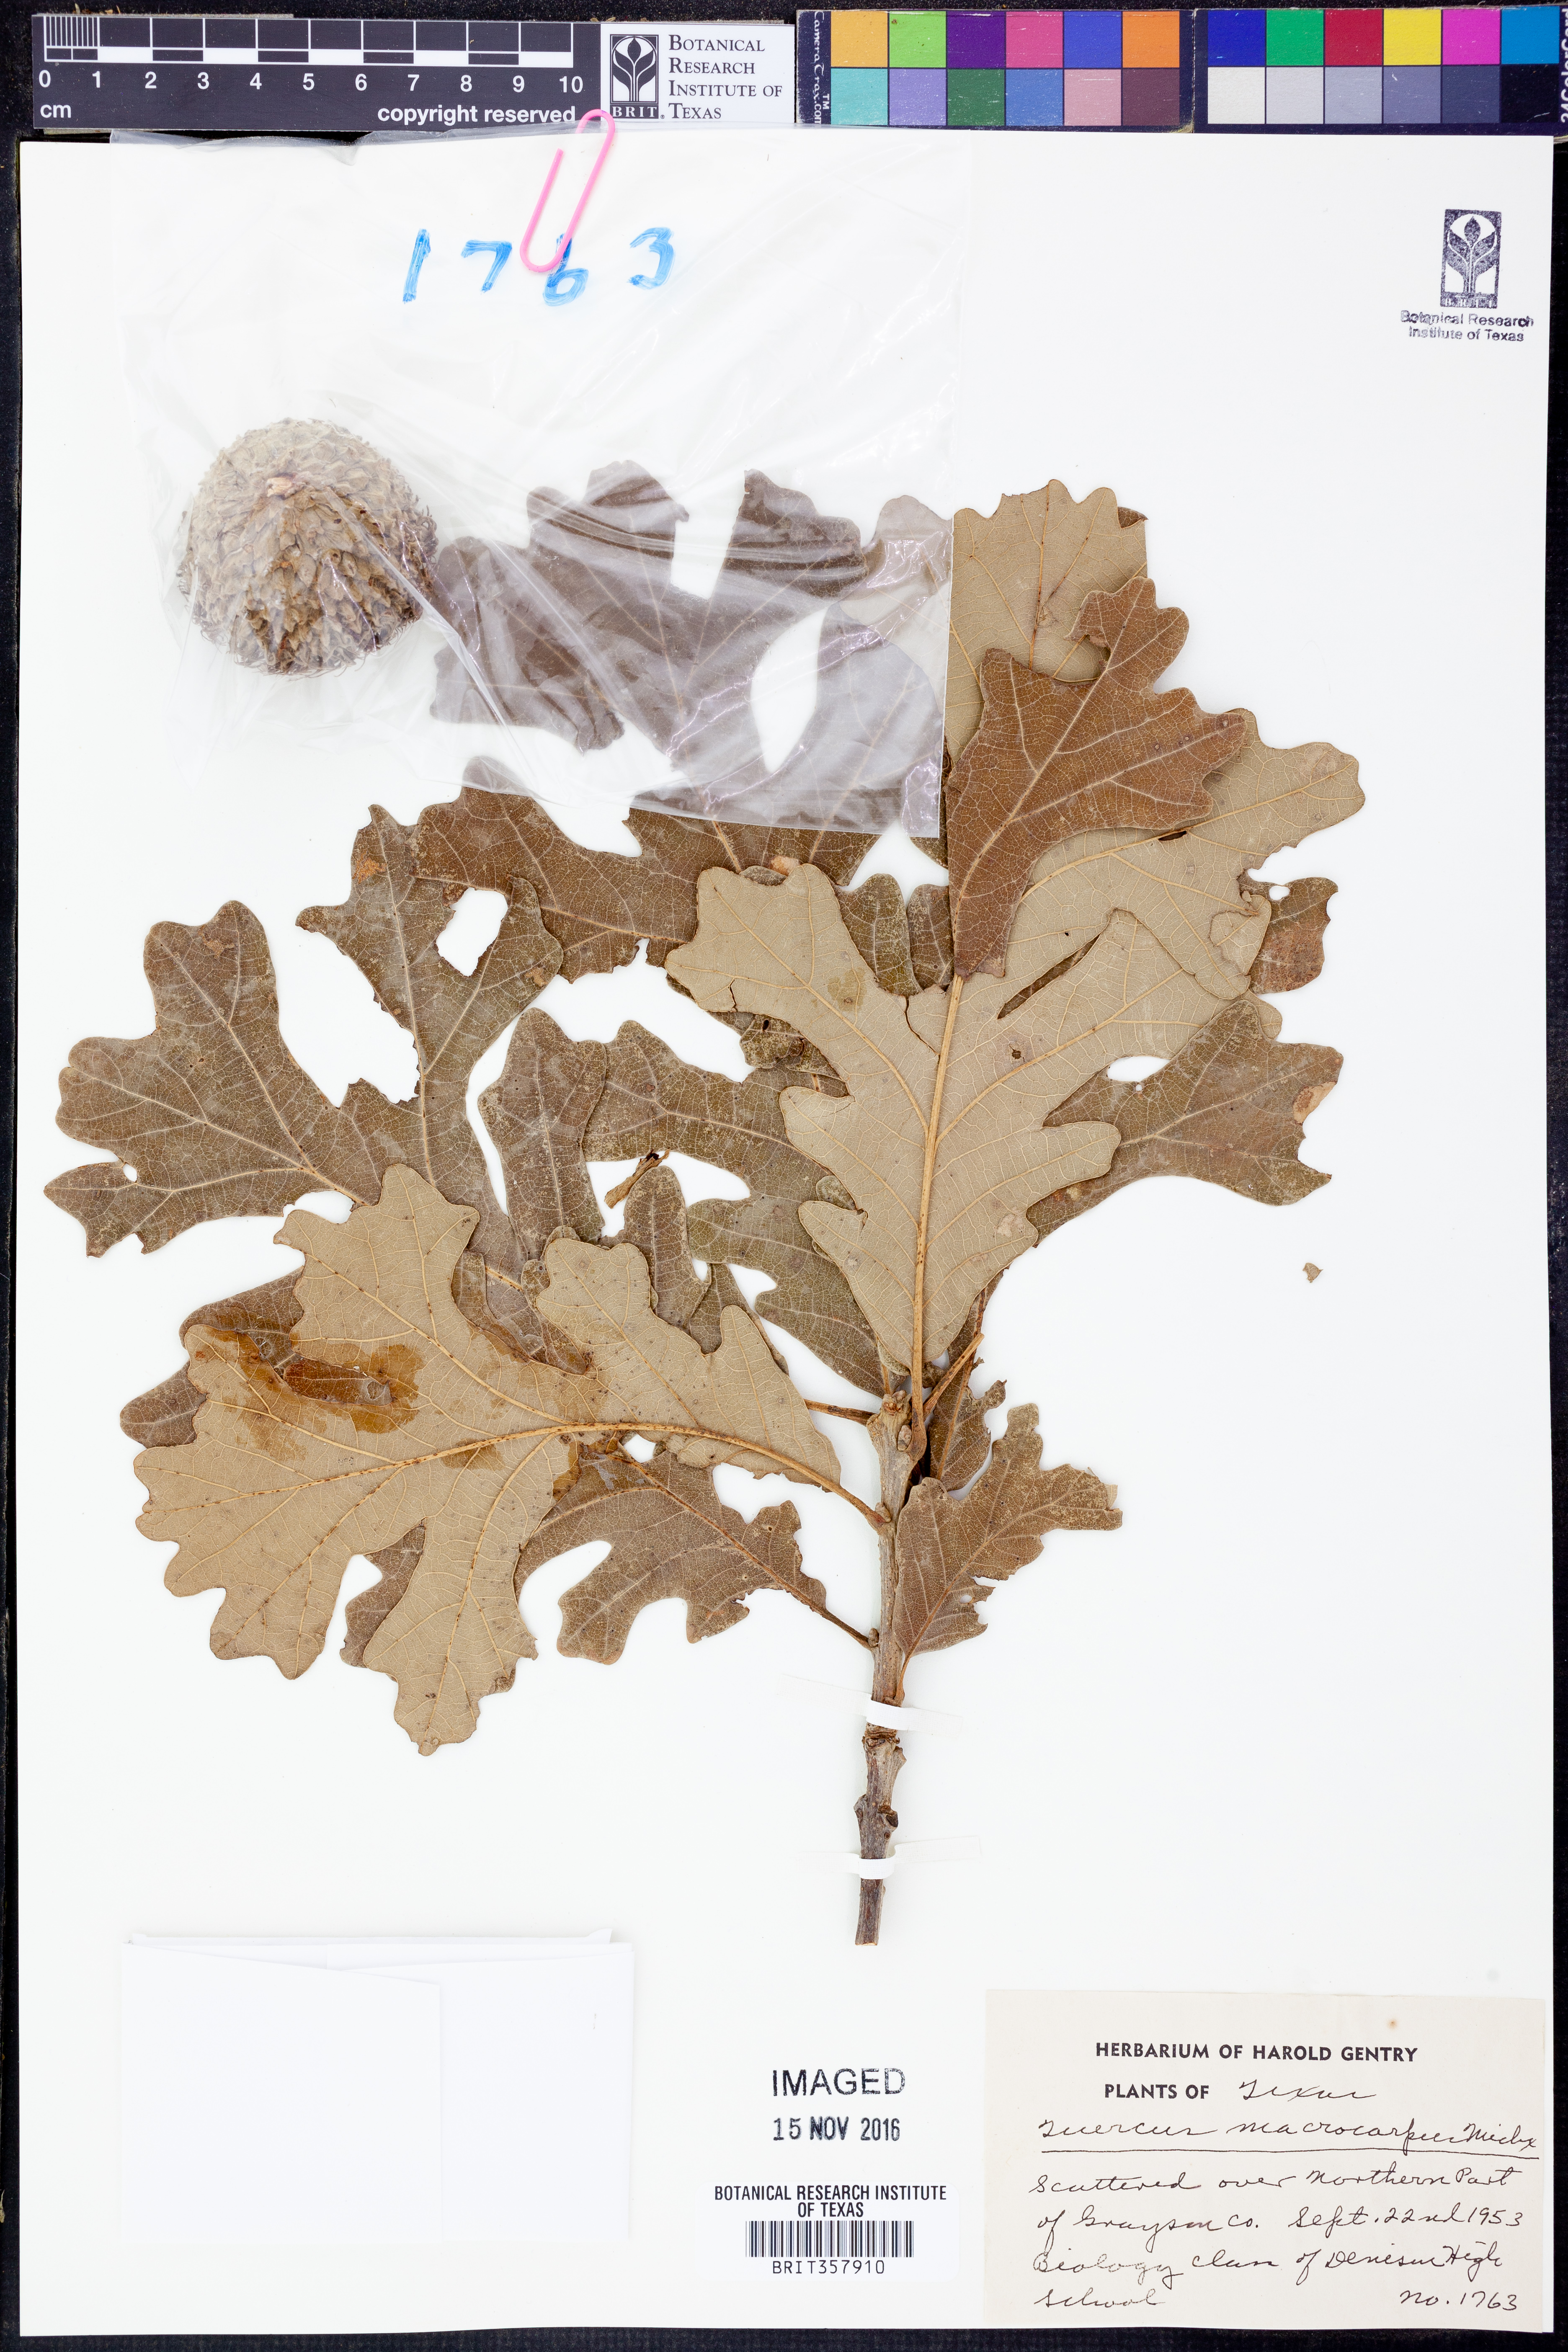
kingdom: Plantae
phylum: Tracheophyta
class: Magnoliopsida
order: Fagales
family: Fagaceae
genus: Quercus
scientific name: Quercus macrocarpa
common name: Bur oak
